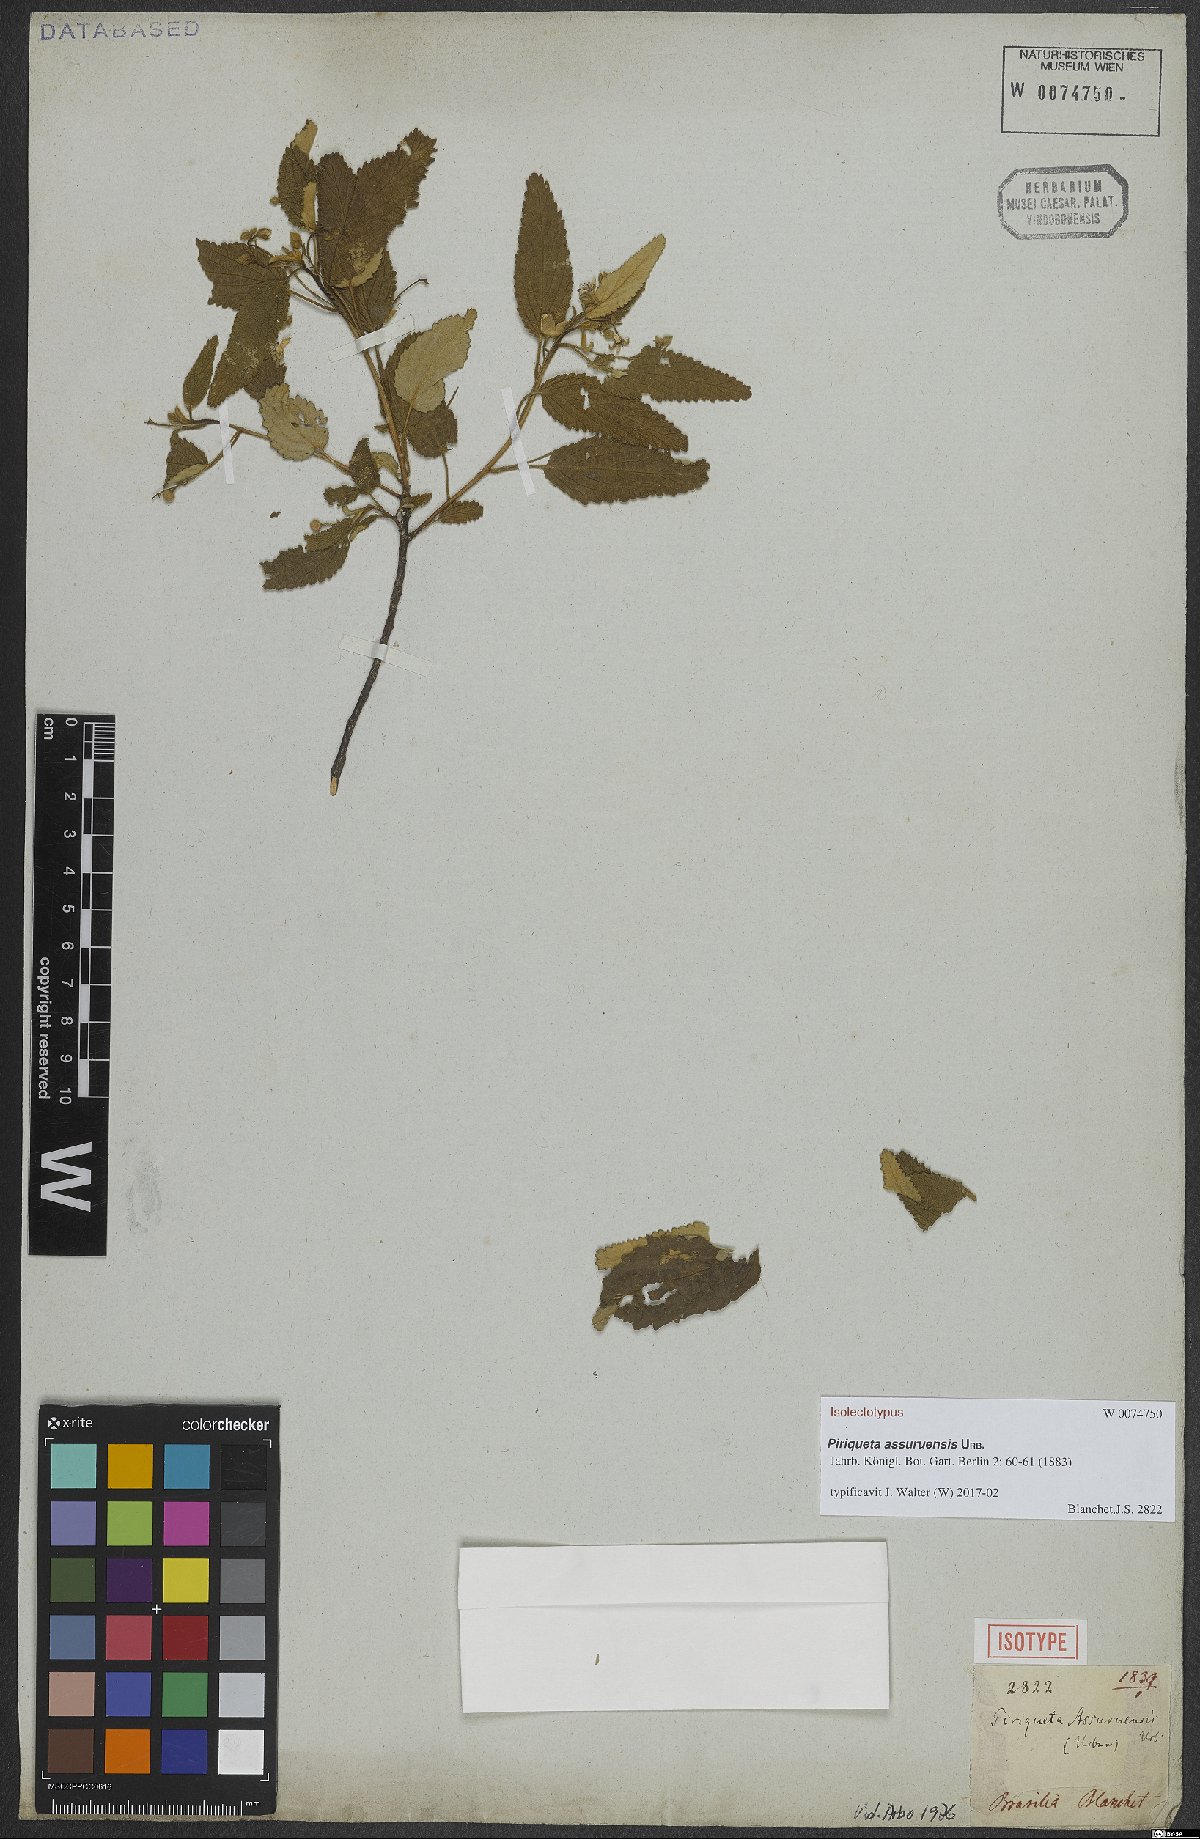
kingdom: Plantae
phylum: Tracheophyta
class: Magnoliopsida
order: Malpighiales
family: Turneraceae
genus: Piriqueta
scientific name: Piriqueta assuruensis
